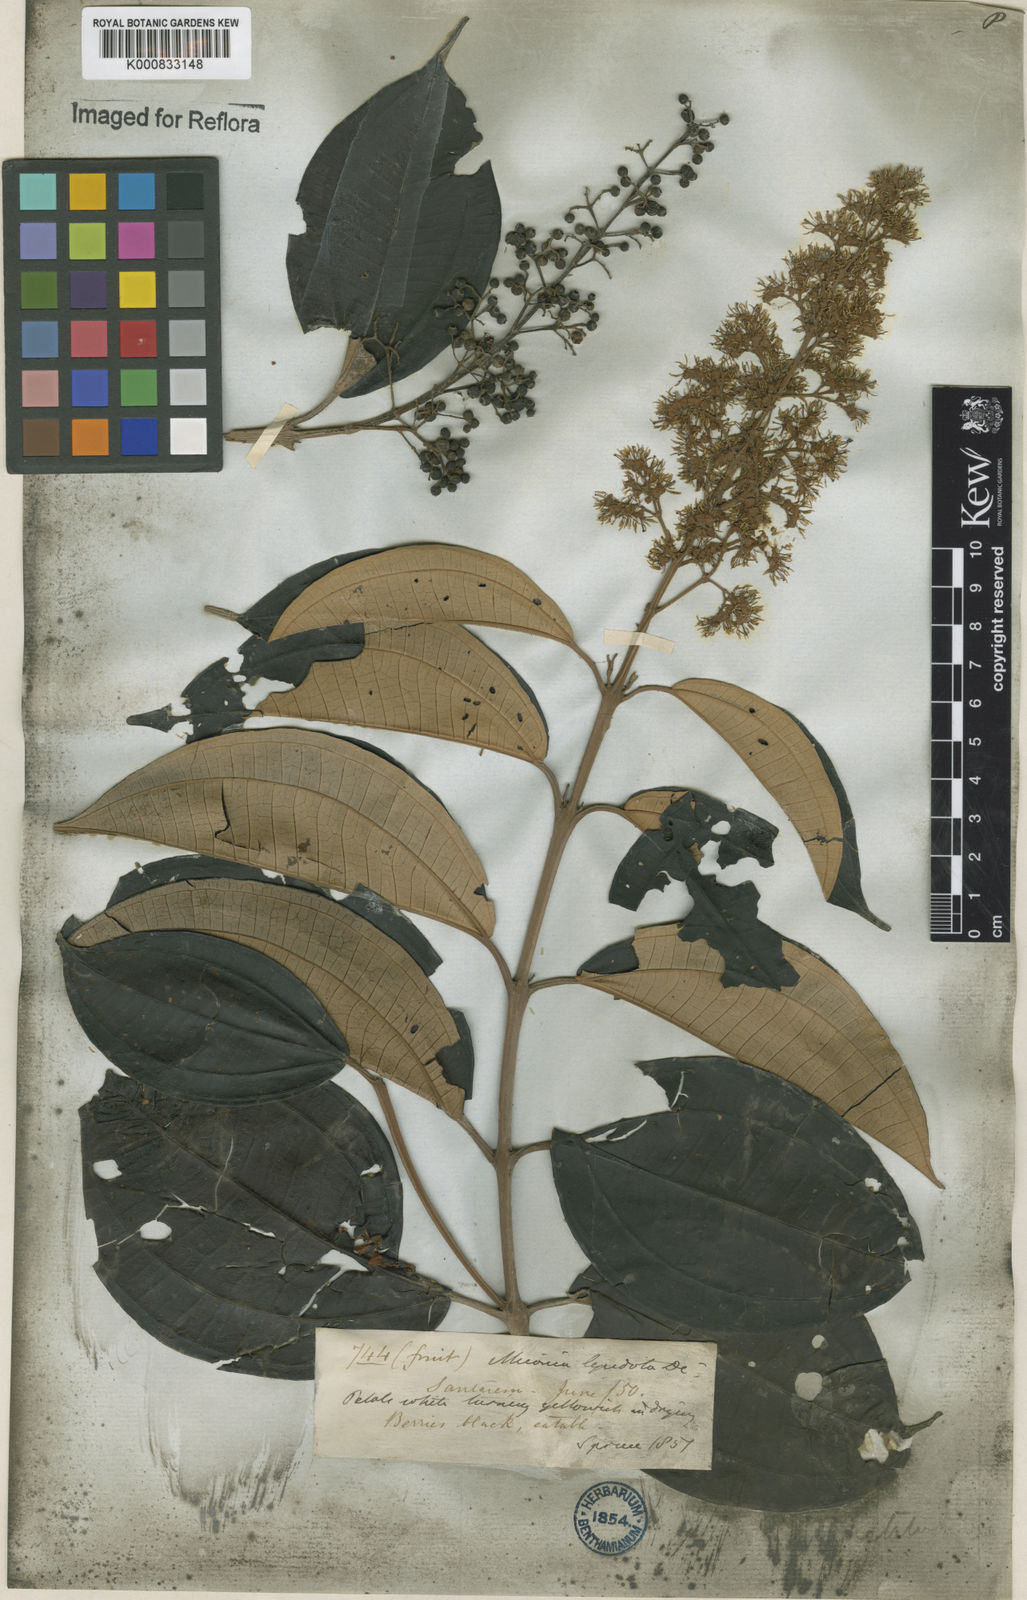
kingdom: Plantae
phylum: Tracheophyta
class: Magnoliopsida
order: Myrtales
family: Melastomataceae
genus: Miconia
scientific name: Miconia lepidota
